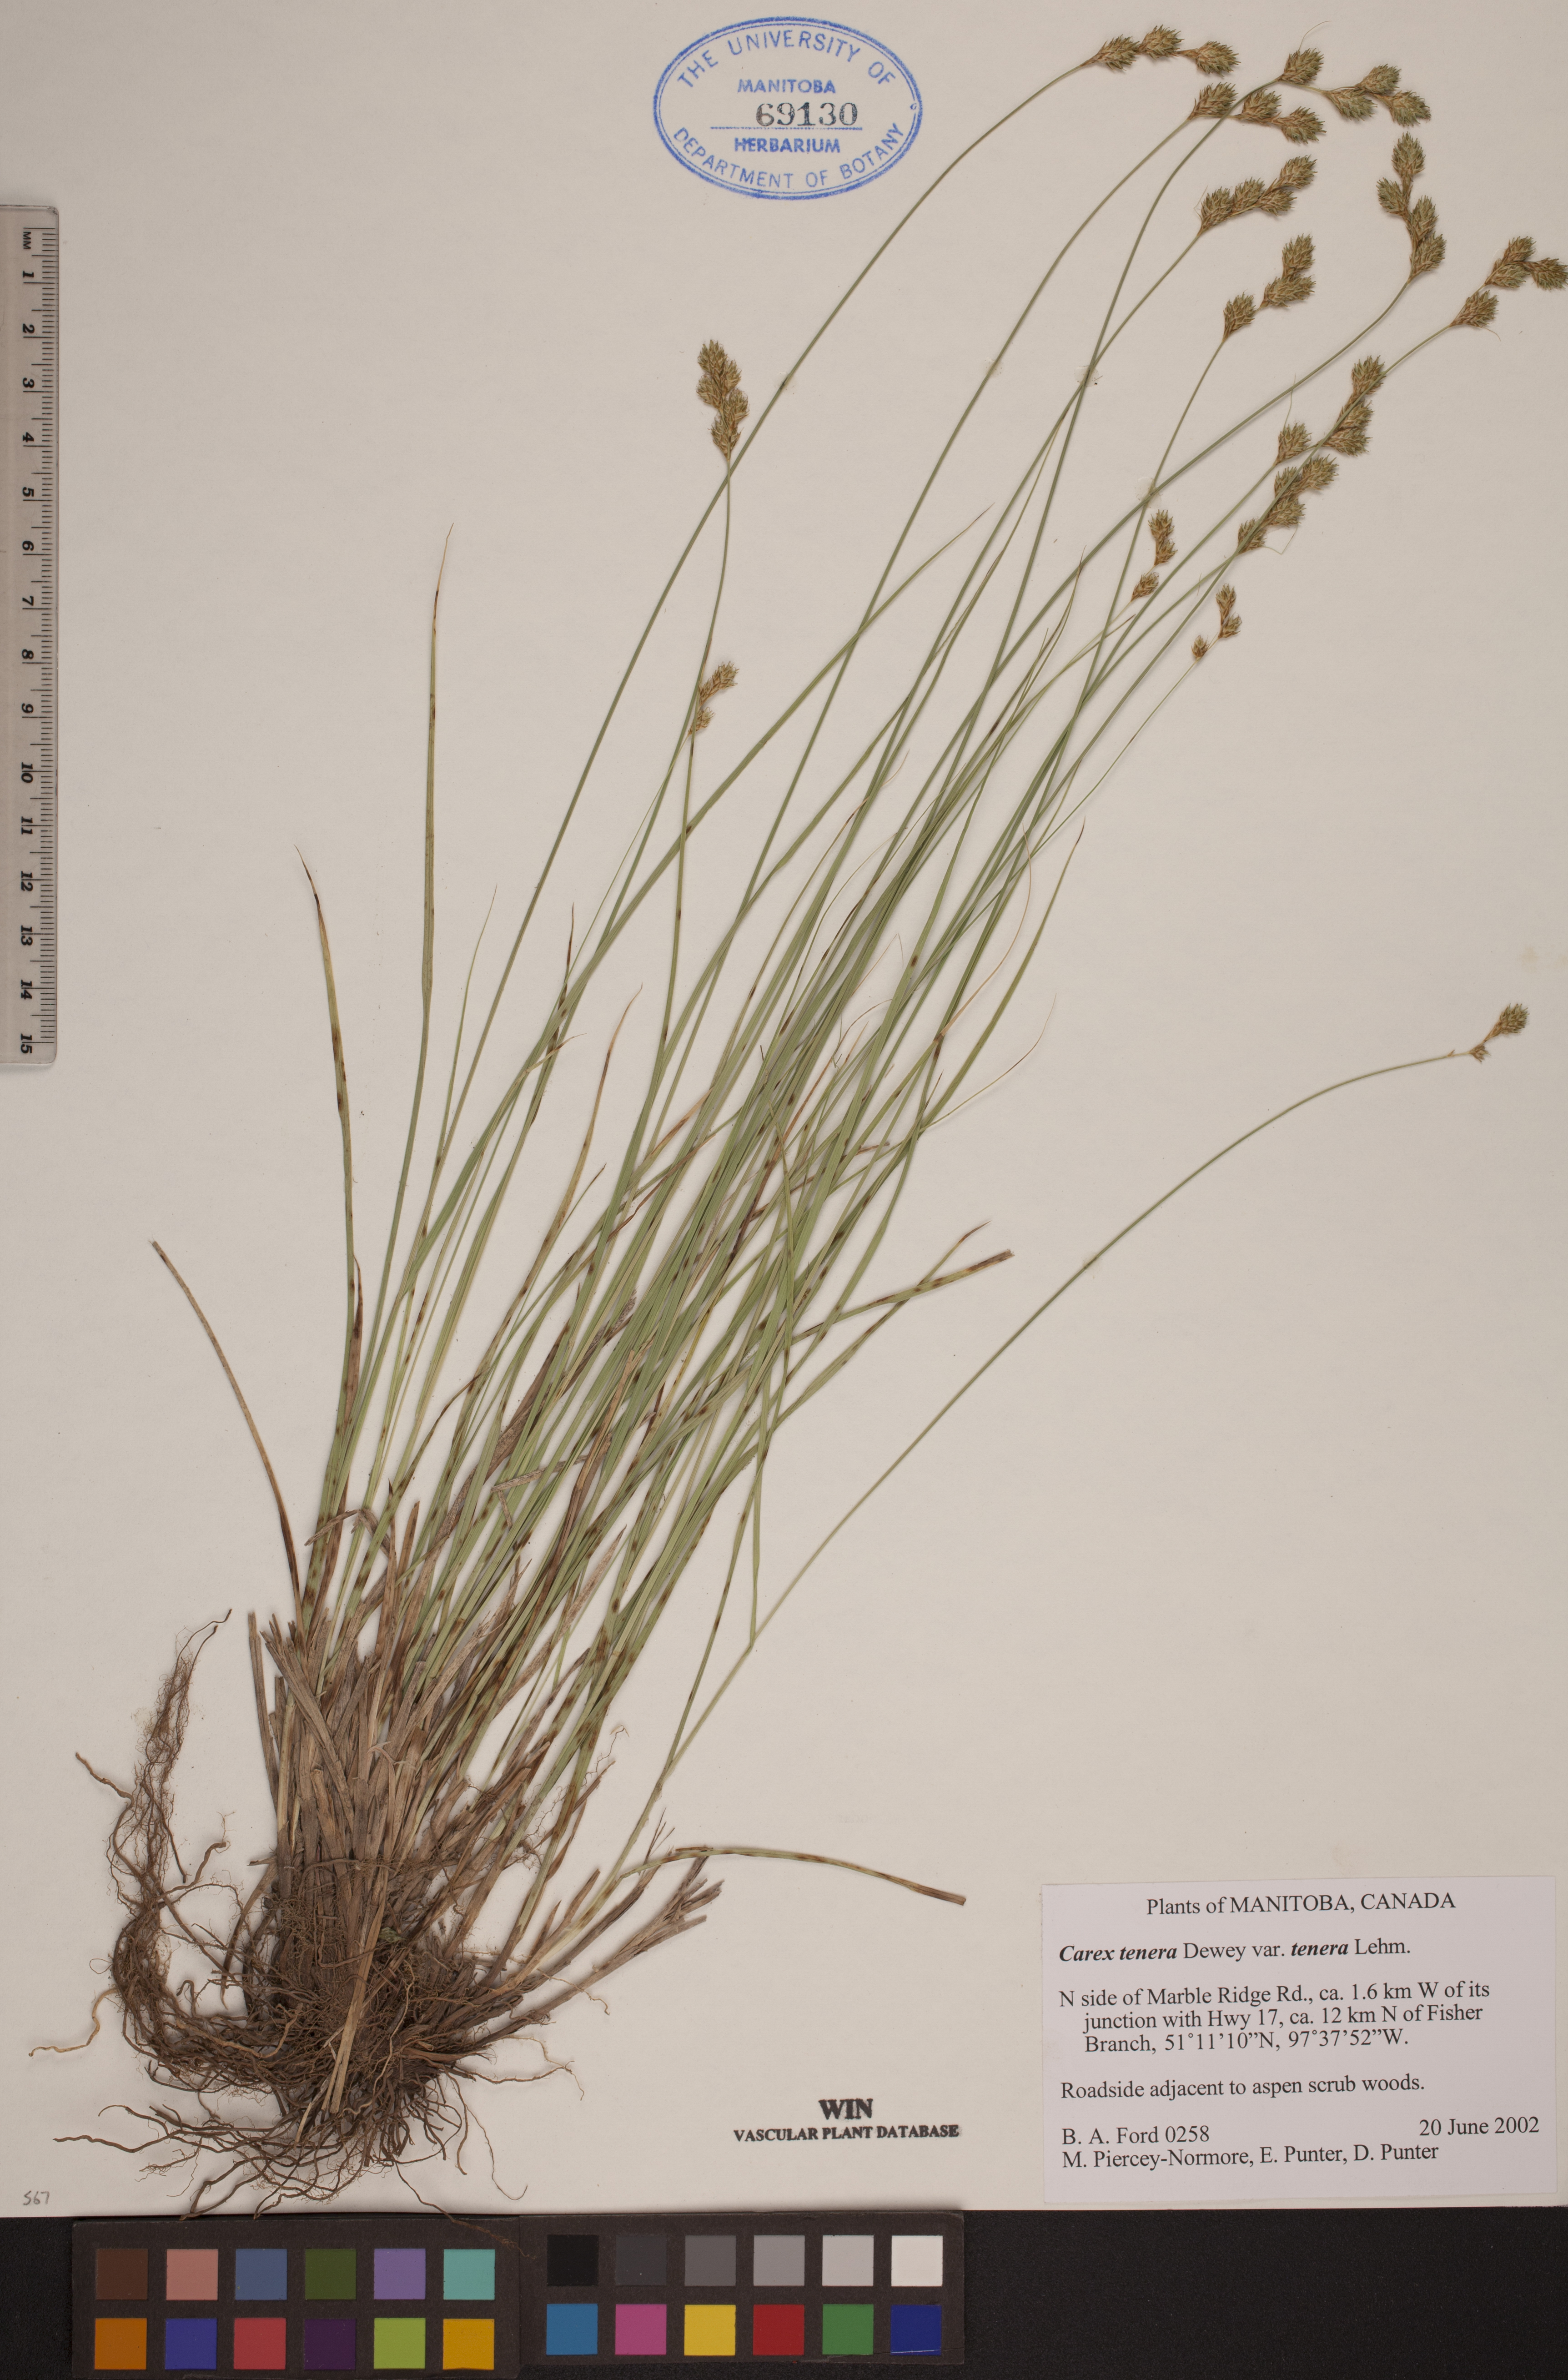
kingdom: Plantae
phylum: Tracheophyta
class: Liliopsida
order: Poales
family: Cyperaceae
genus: Carex
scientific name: Carex tenera
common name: Broad-fruited sedge
